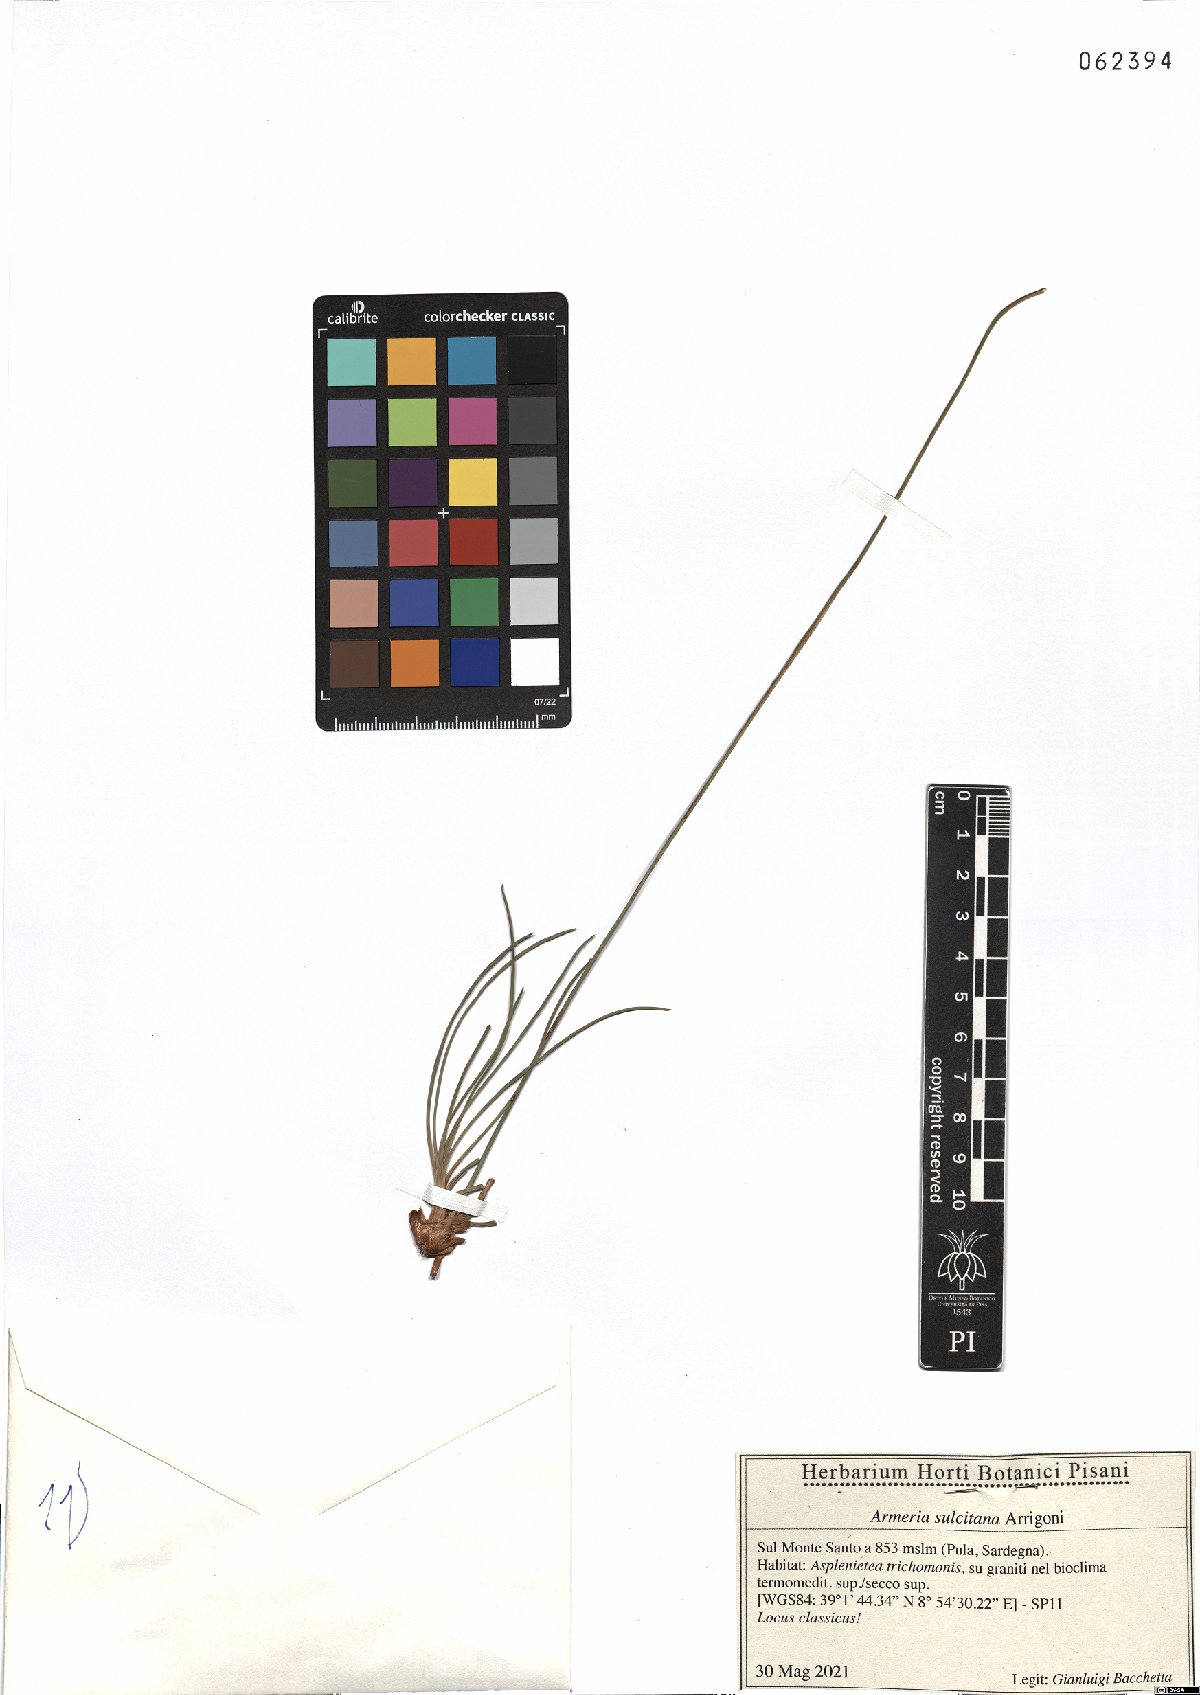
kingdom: Plantae
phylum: Tracheophyta
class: Magnoliopsida
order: Caryophyllales
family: Plumbaginaceae
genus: Armeria
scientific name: Armeria sulcitana
